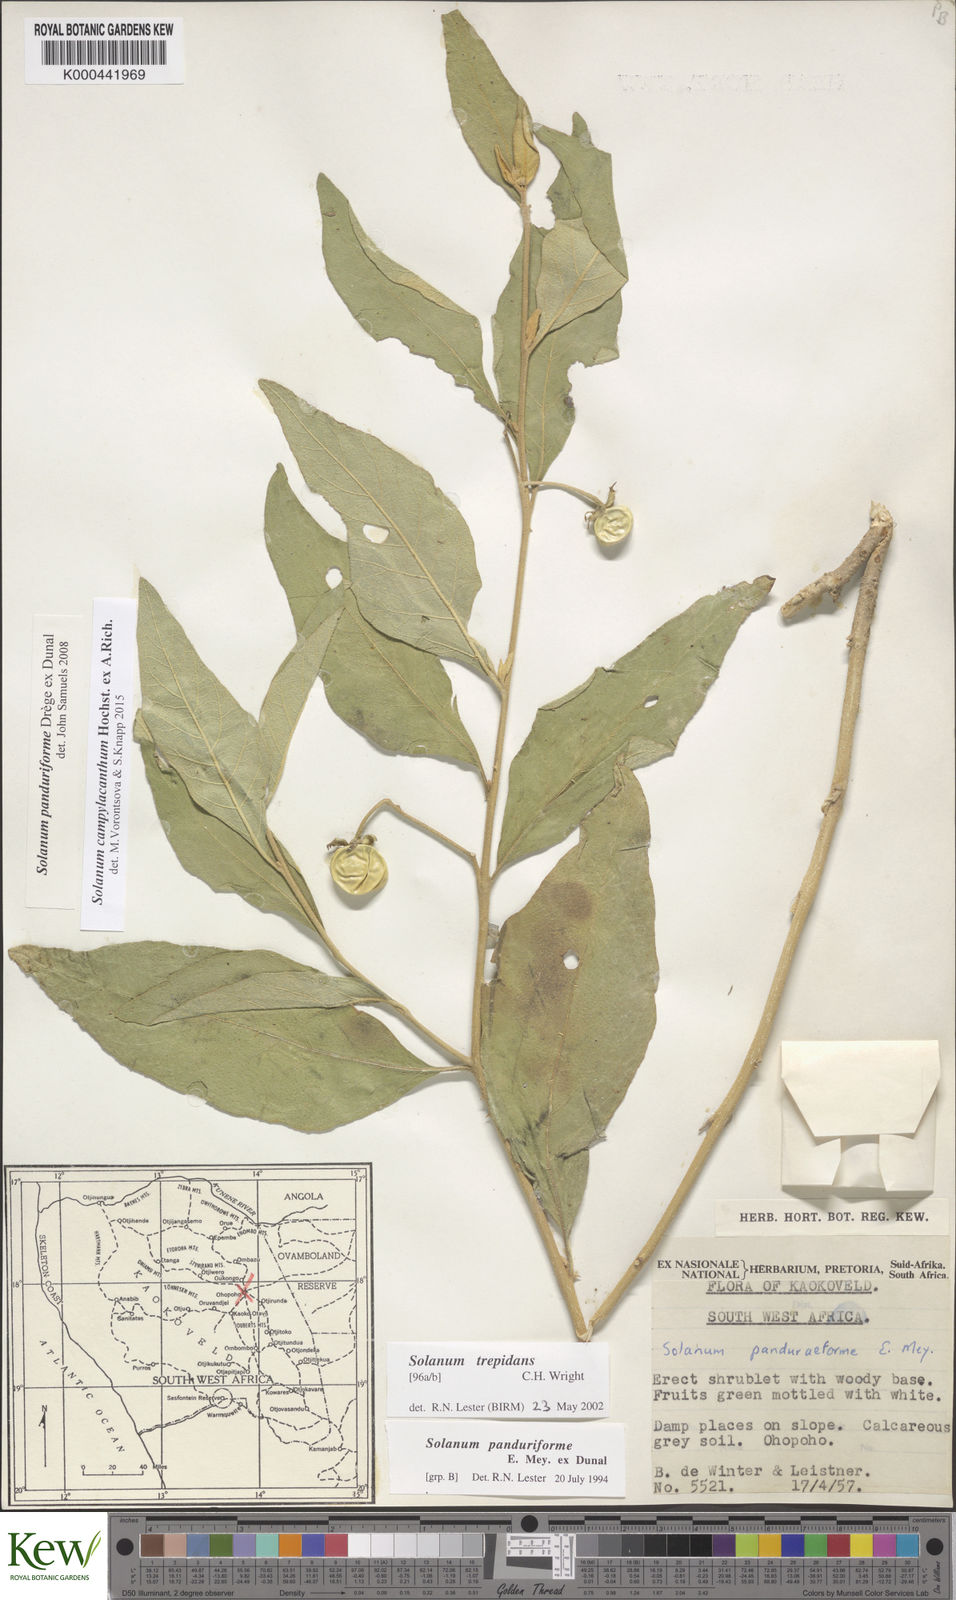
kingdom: Plantae
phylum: Tracheophyta
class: Magnoliopsida
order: Solanales
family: Solanaceae
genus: Solanum
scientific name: Solanum campylacanthum
